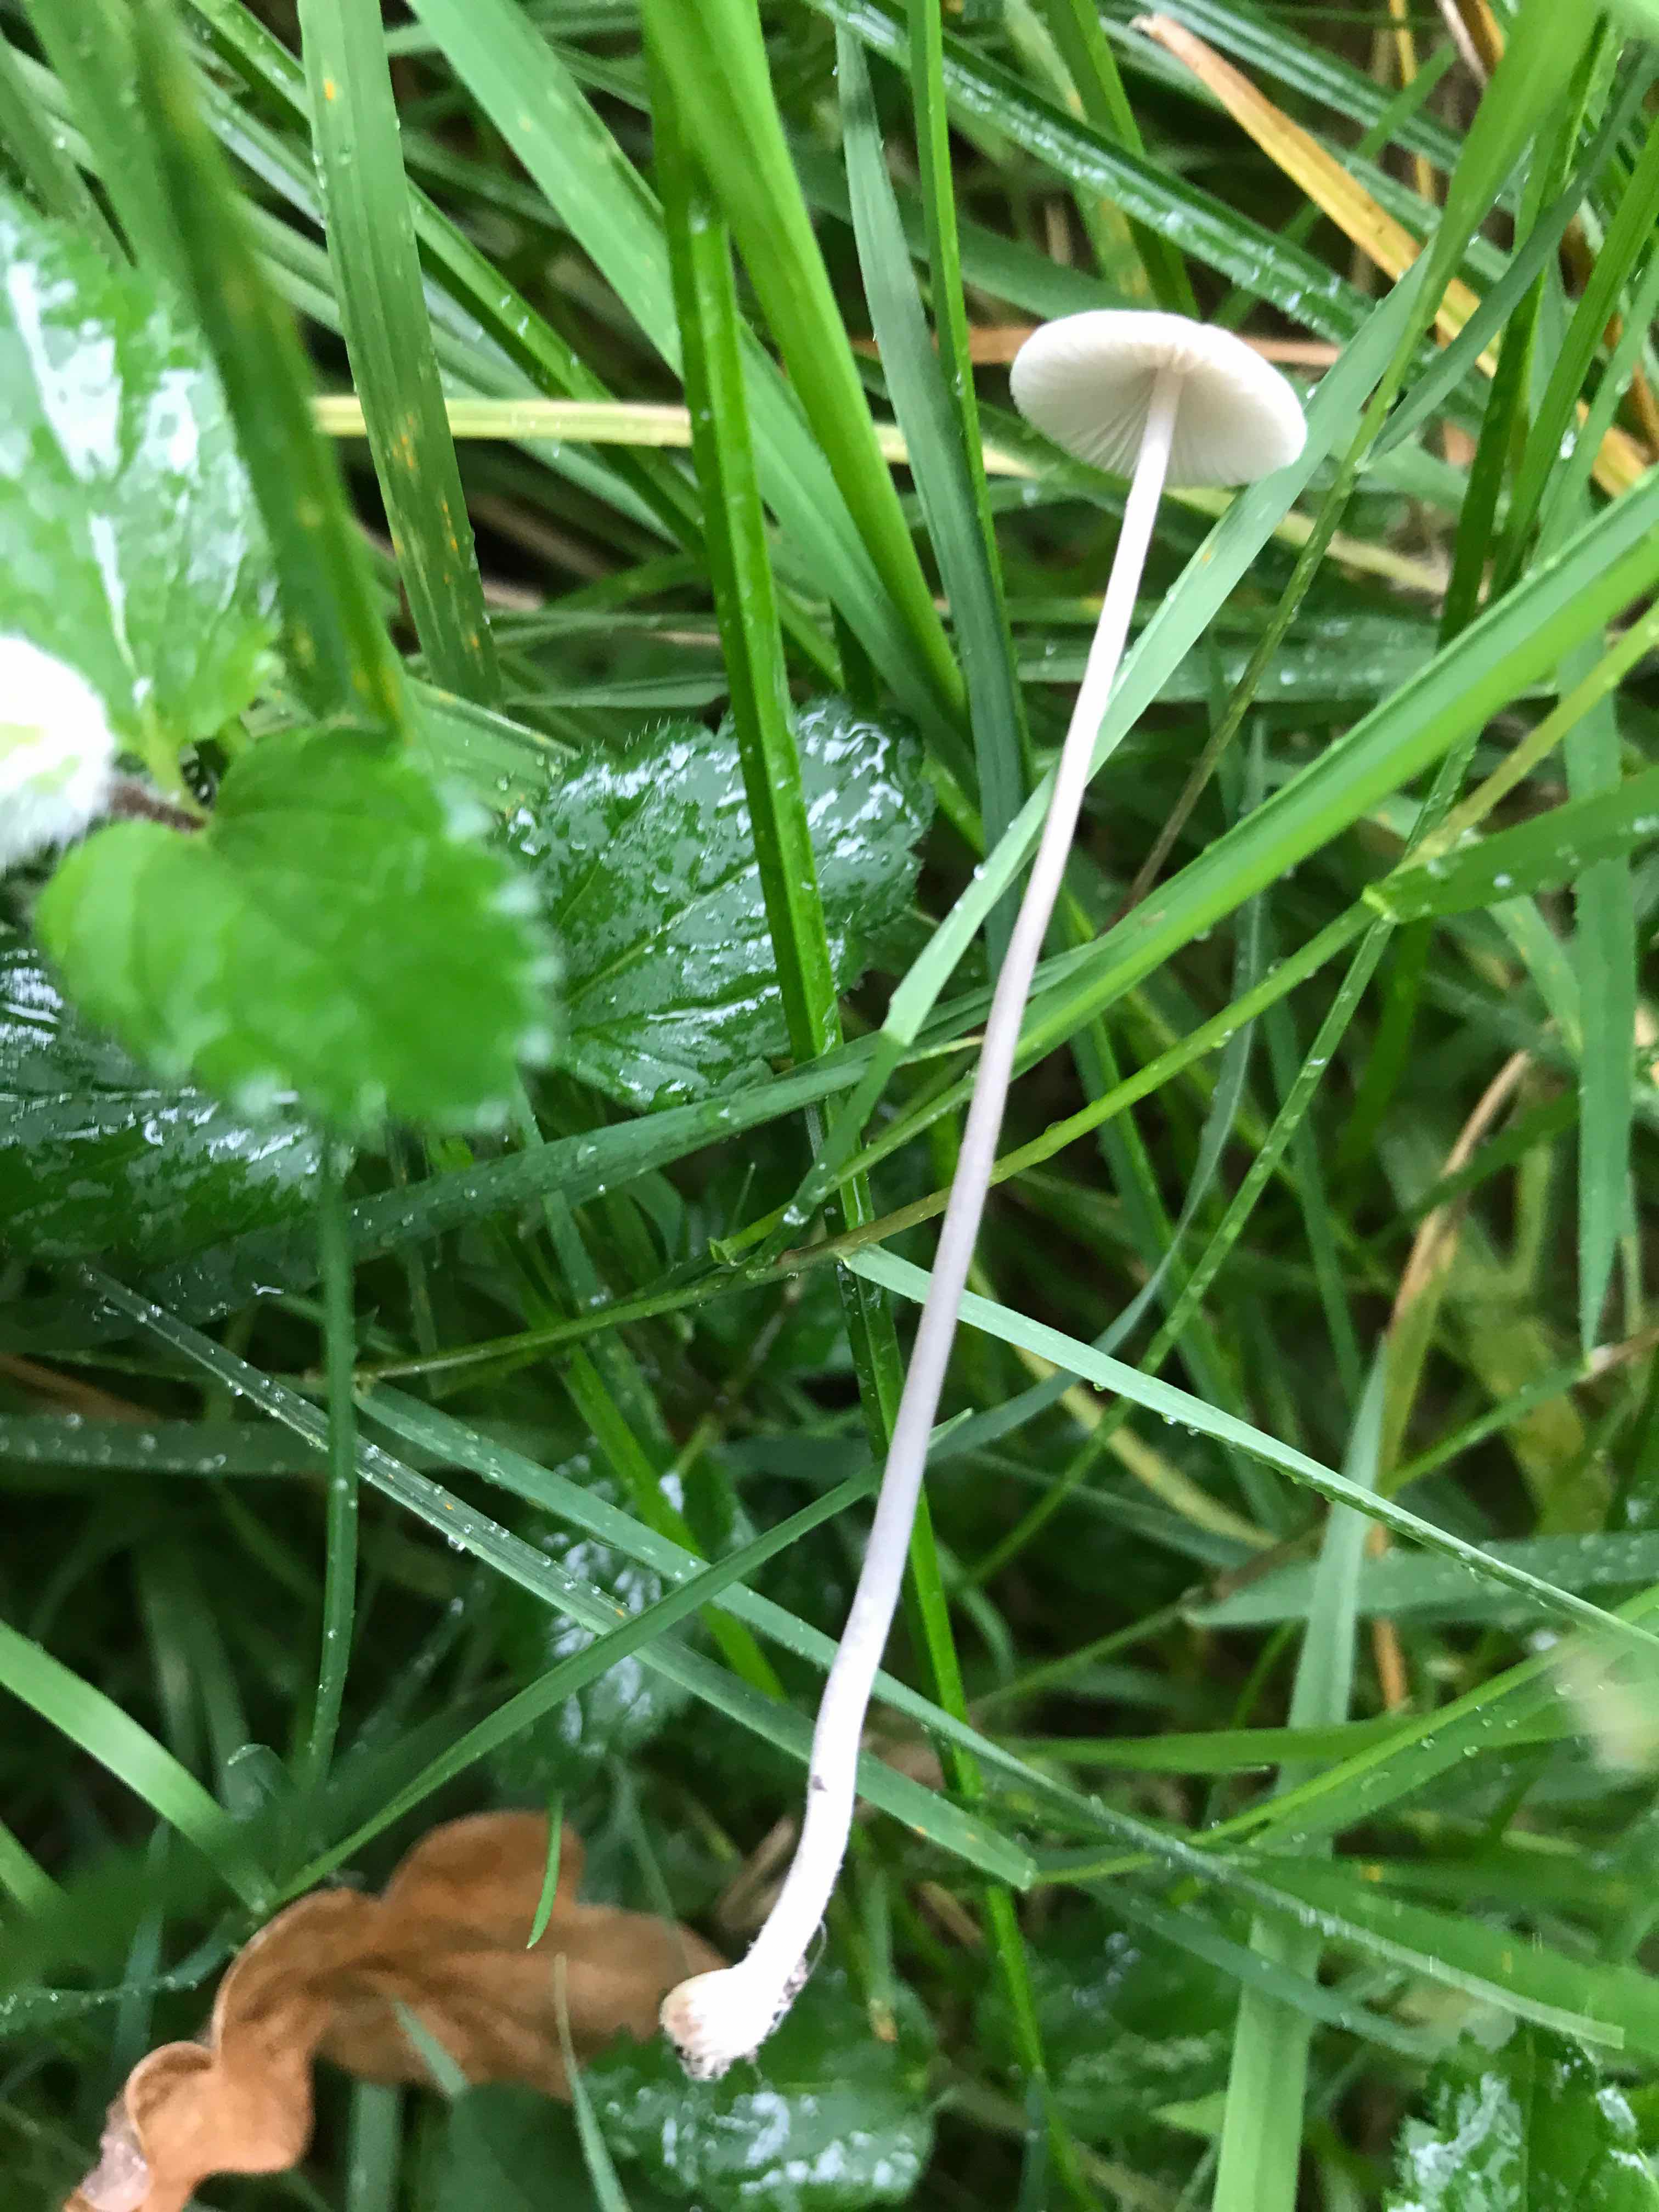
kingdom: Fungi
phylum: Basidiomycota
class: Agaricomycetes
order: Agaricales
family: Mycenaceae
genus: Mycena
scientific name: Mycena vitilis
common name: blankstokket huesvamp
